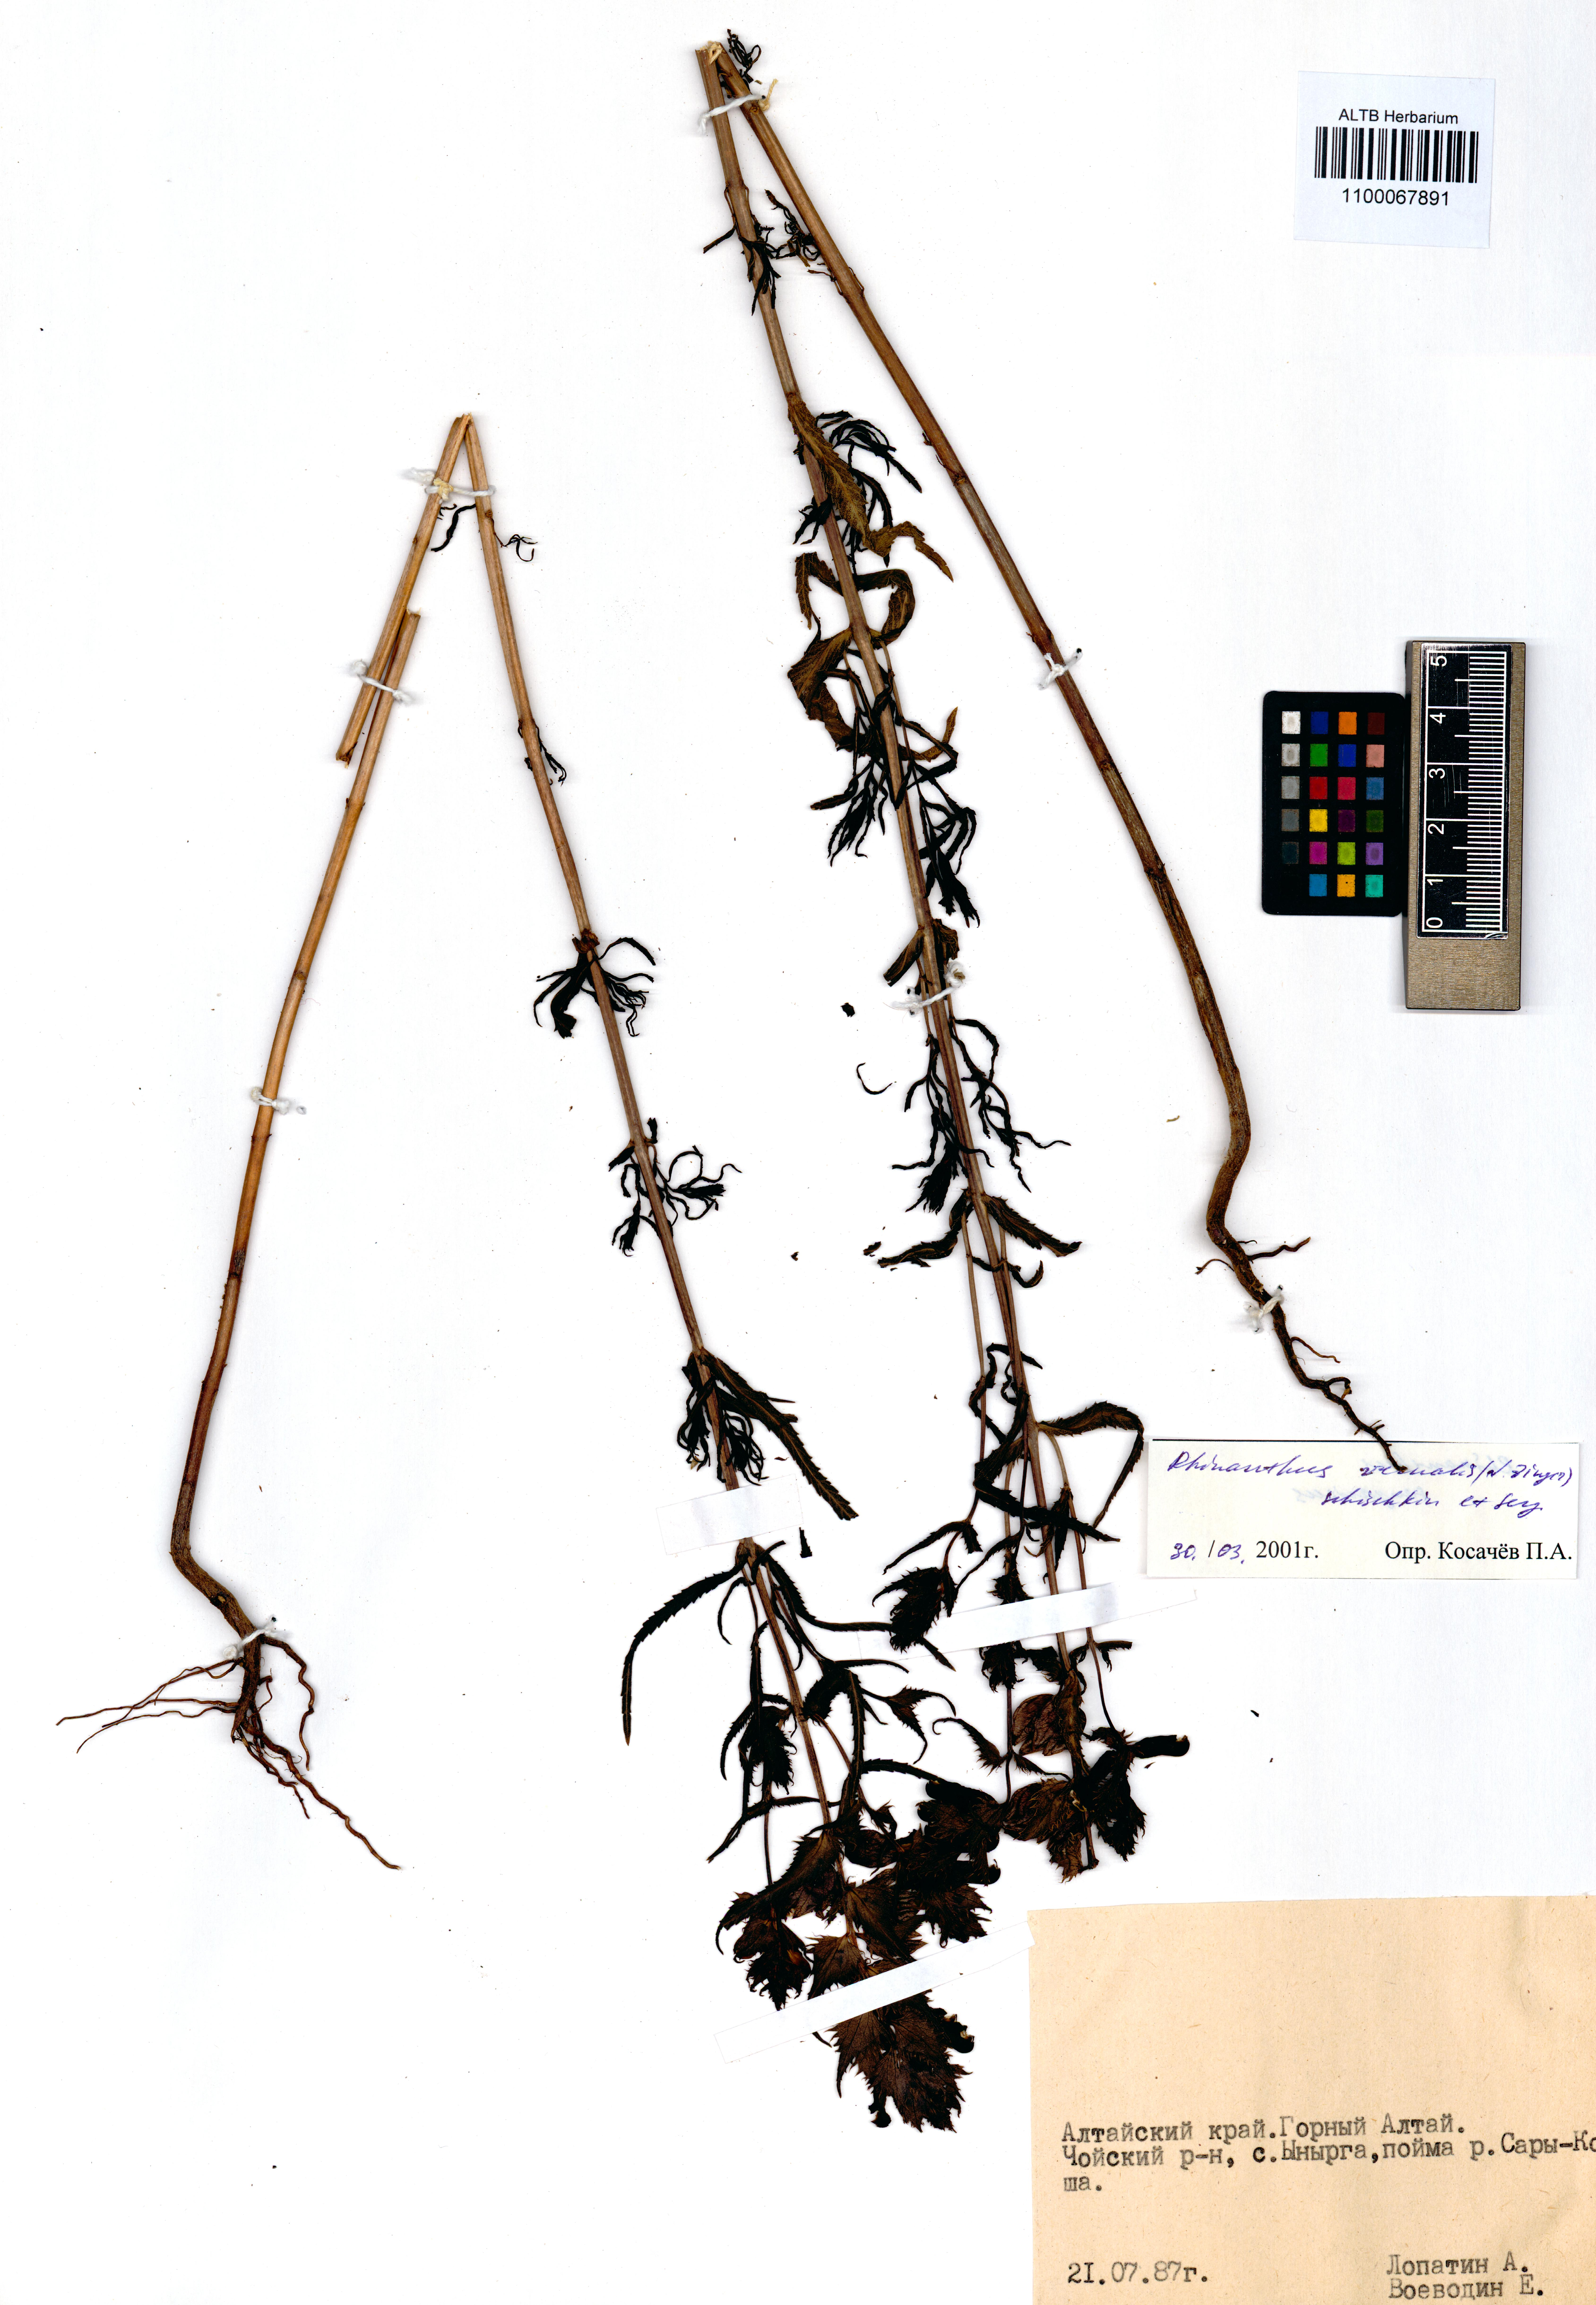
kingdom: Plantae
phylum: Tracheophyta
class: Magnoliopsida
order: Lamiales
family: Orobanchaceae
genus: Rhinanthus
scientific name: Rhinanthus serotinus
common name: Late-flowering yellow rattle
